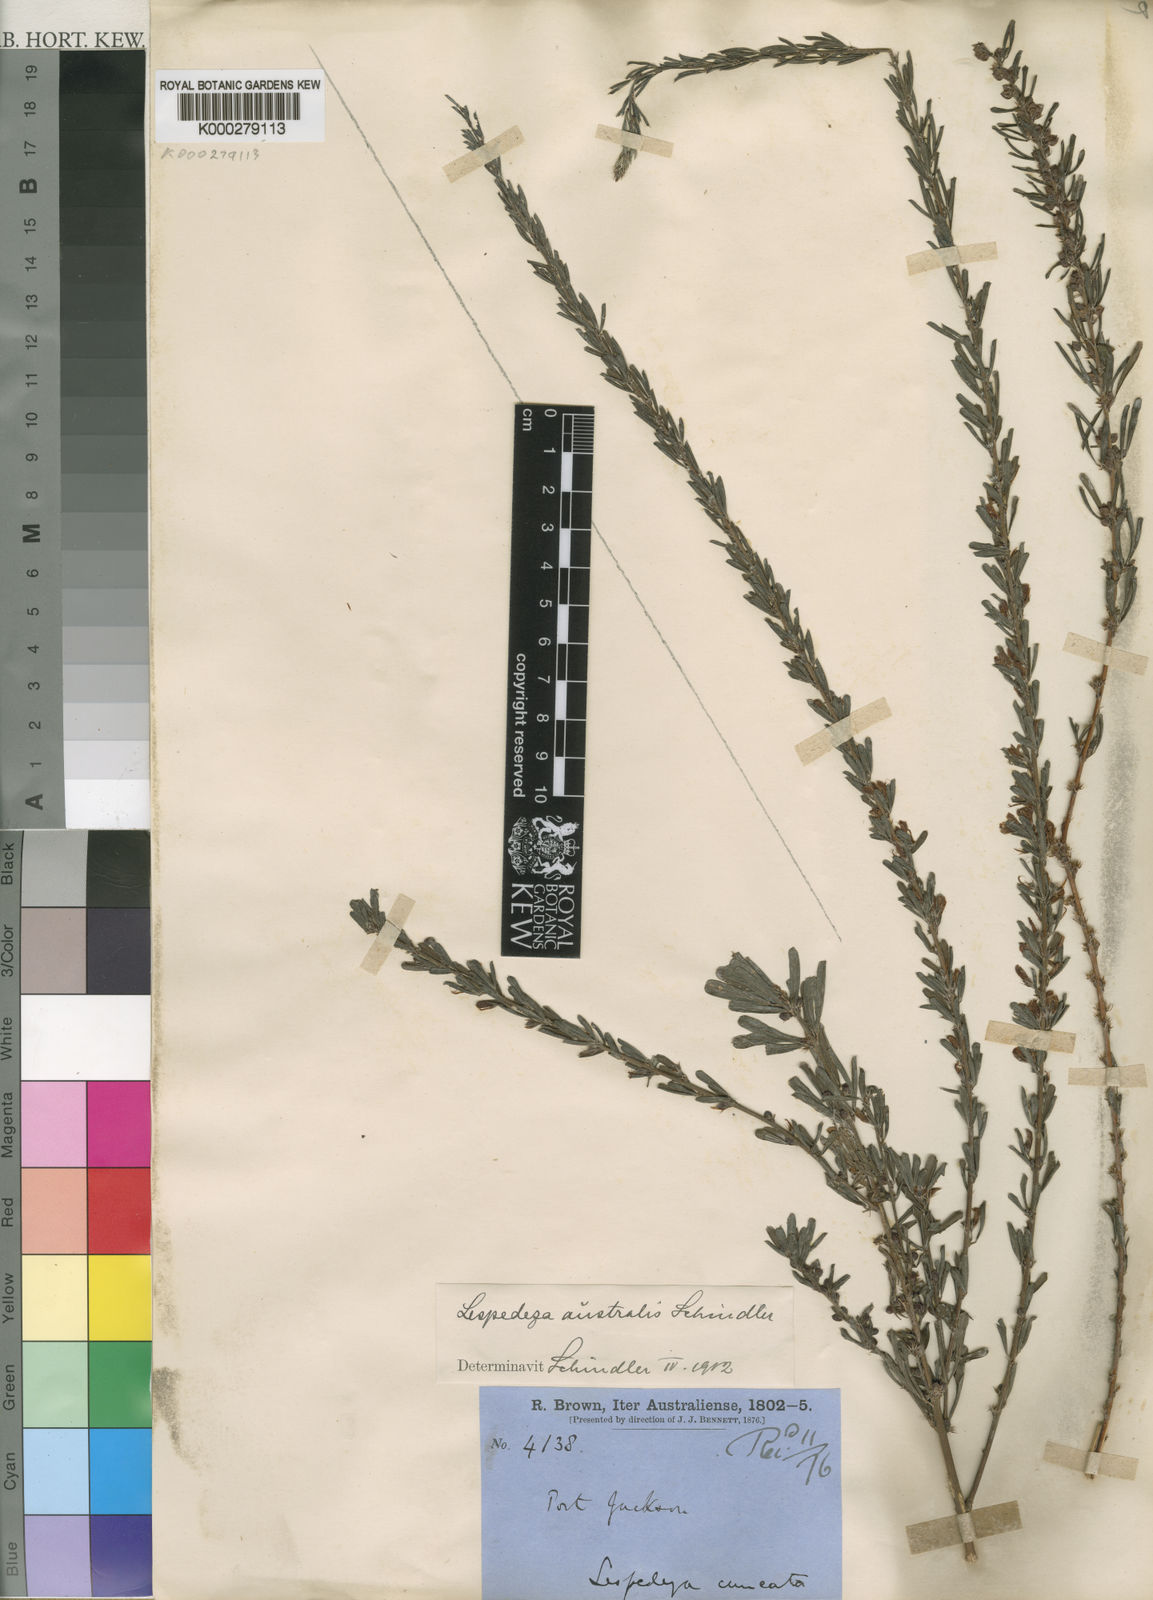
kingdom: Plantae
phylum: Tracheophyta
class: Magnoliopsida
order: Fabales
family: Fabaceae
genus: Lespedeza
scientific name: Lespedeza
